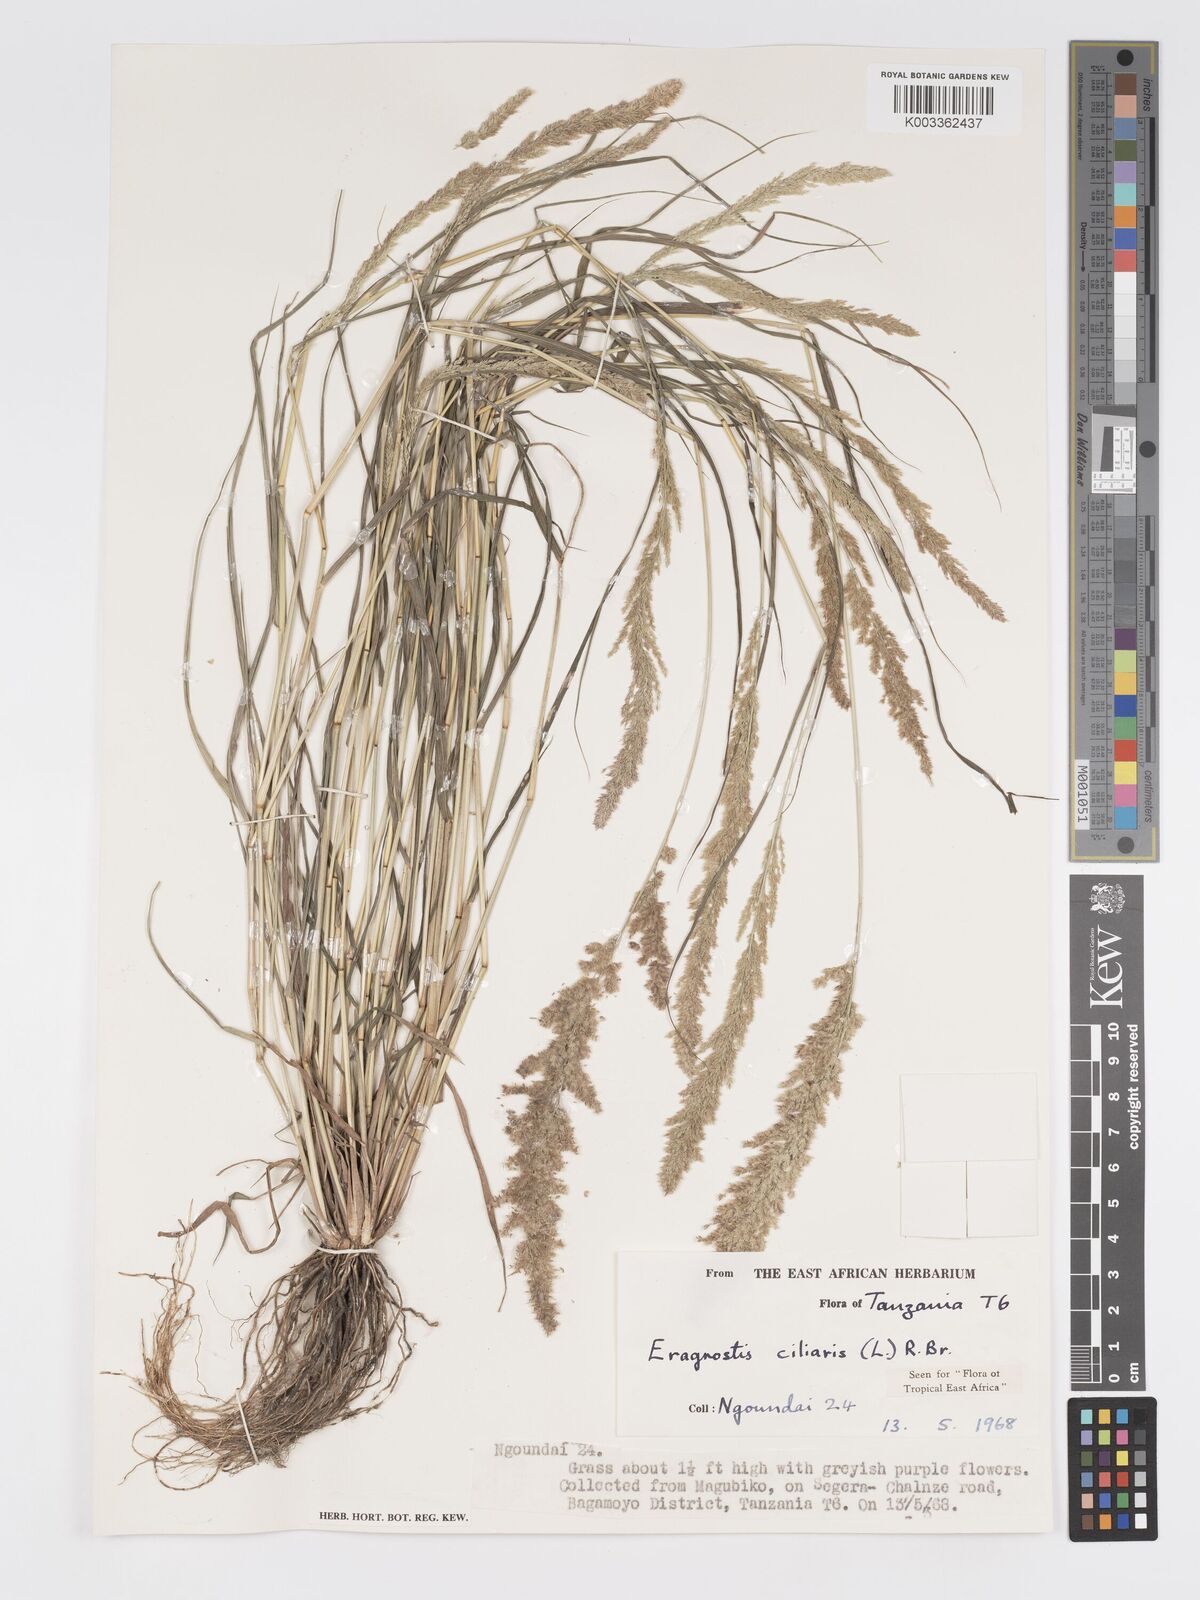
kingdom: Plantae
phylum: Tracheophyta
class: Liliopsida
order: Poales
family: Poaceae
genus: Eragrostis
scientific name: Eragrostis ciliaris
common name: Gophertail lovegrass
